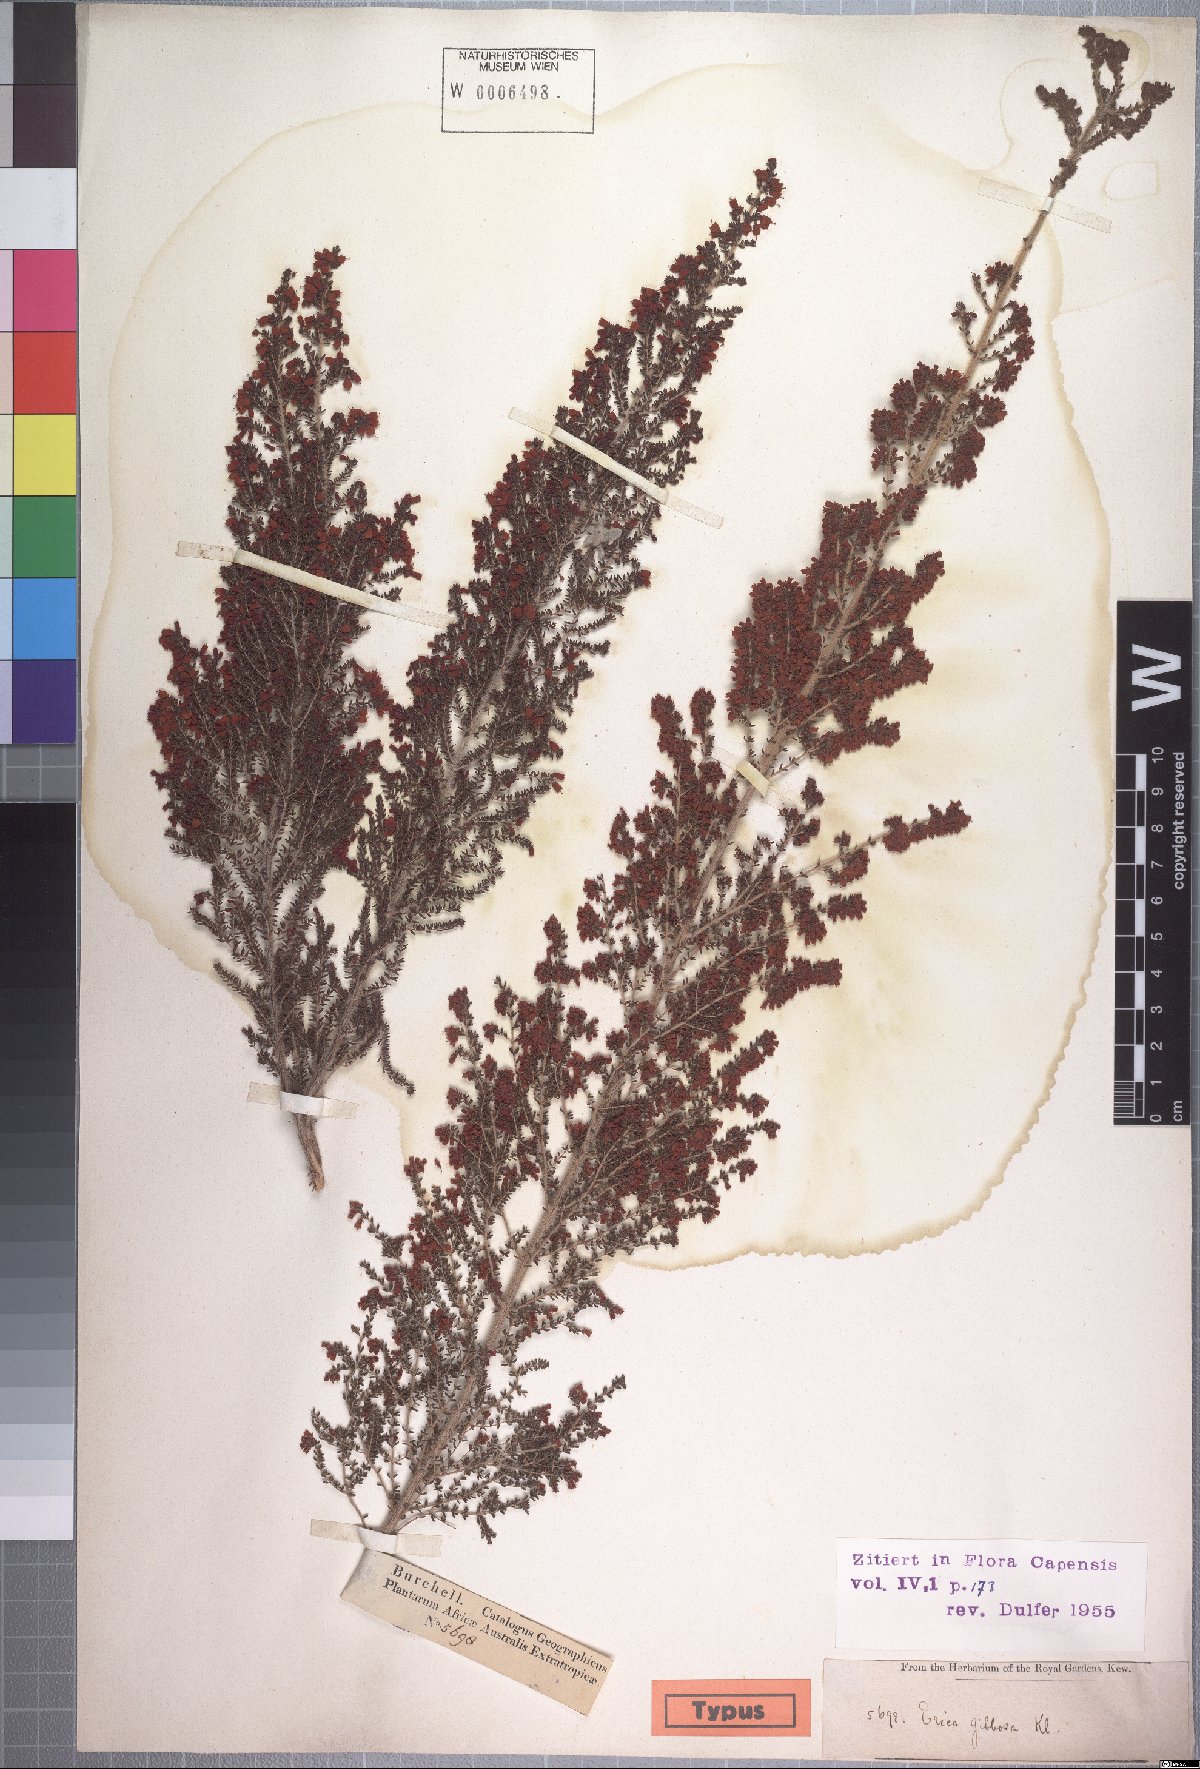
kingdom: Plantae
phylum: Tracheophyta
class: Magnoliopsida
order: Ericales
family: Ericaceae
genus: Erica
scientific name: Erica scabriuscula
